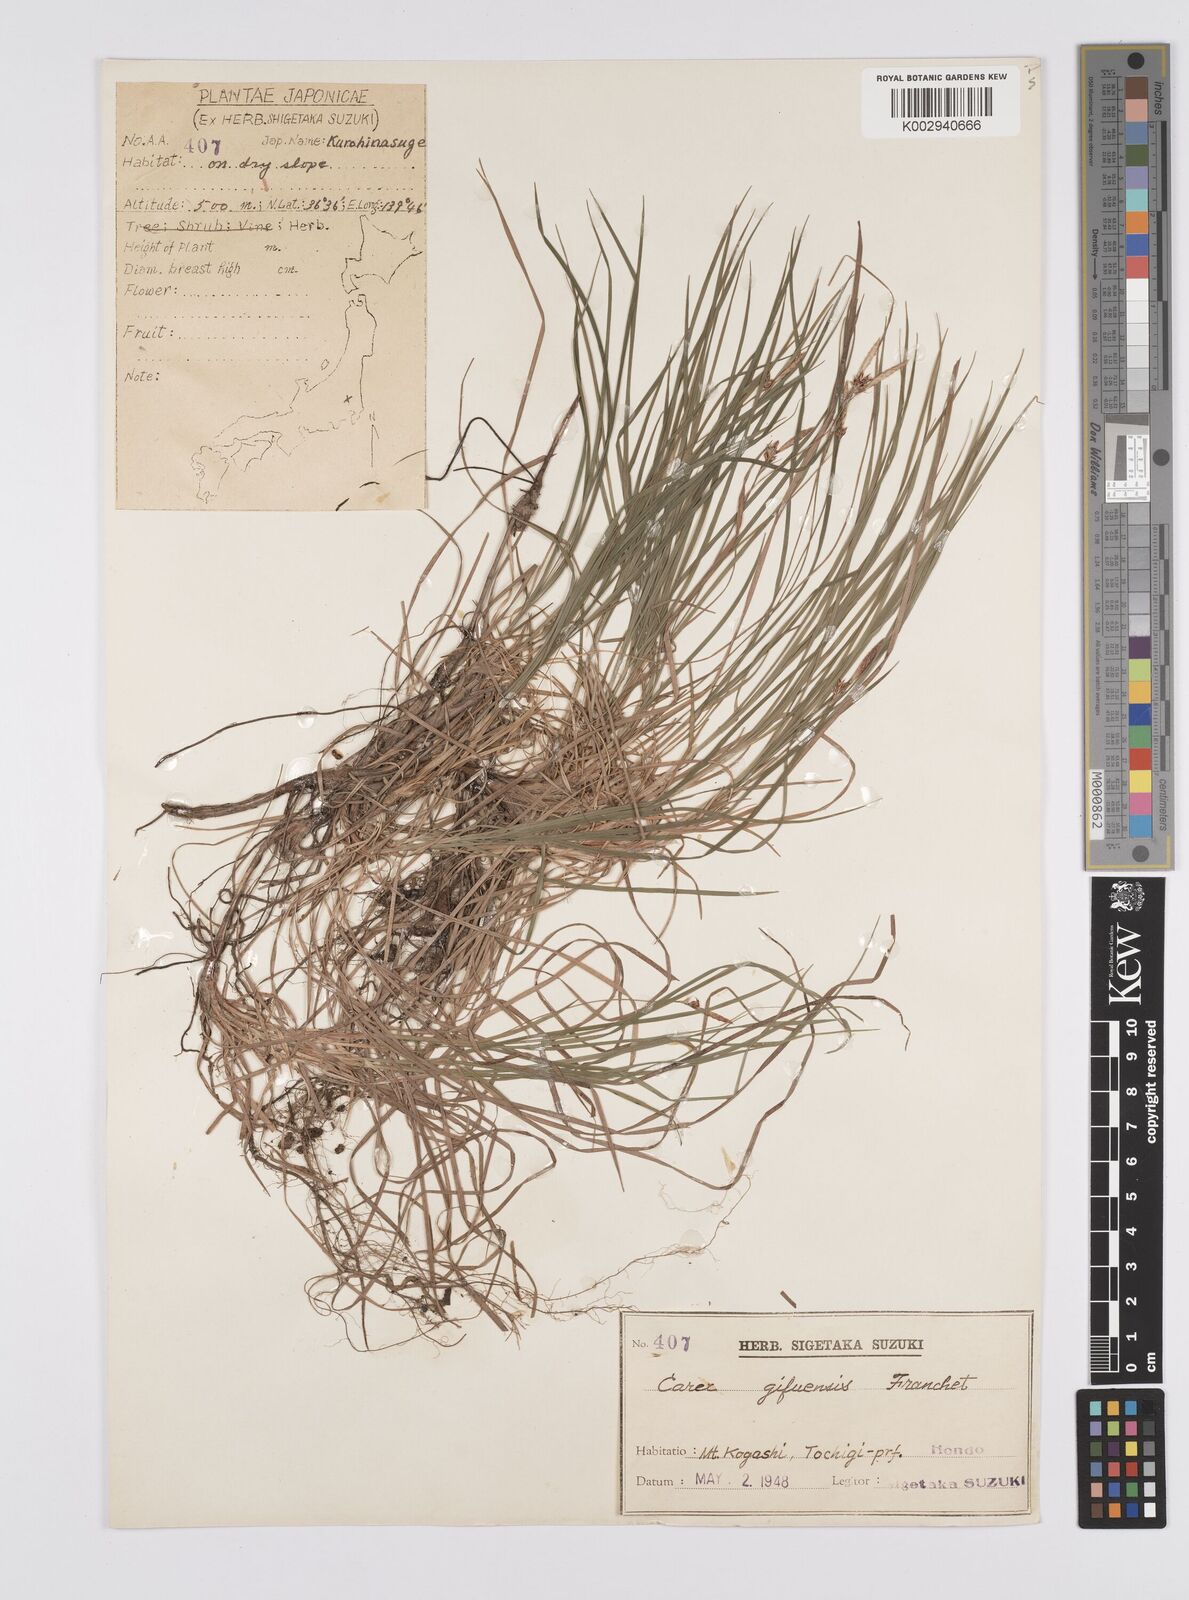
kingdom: Plantae
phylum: Tracheophyta
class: Liliopsida
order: Poales
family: Cyperaceae
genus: Carex
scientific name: Carex gifuensis
